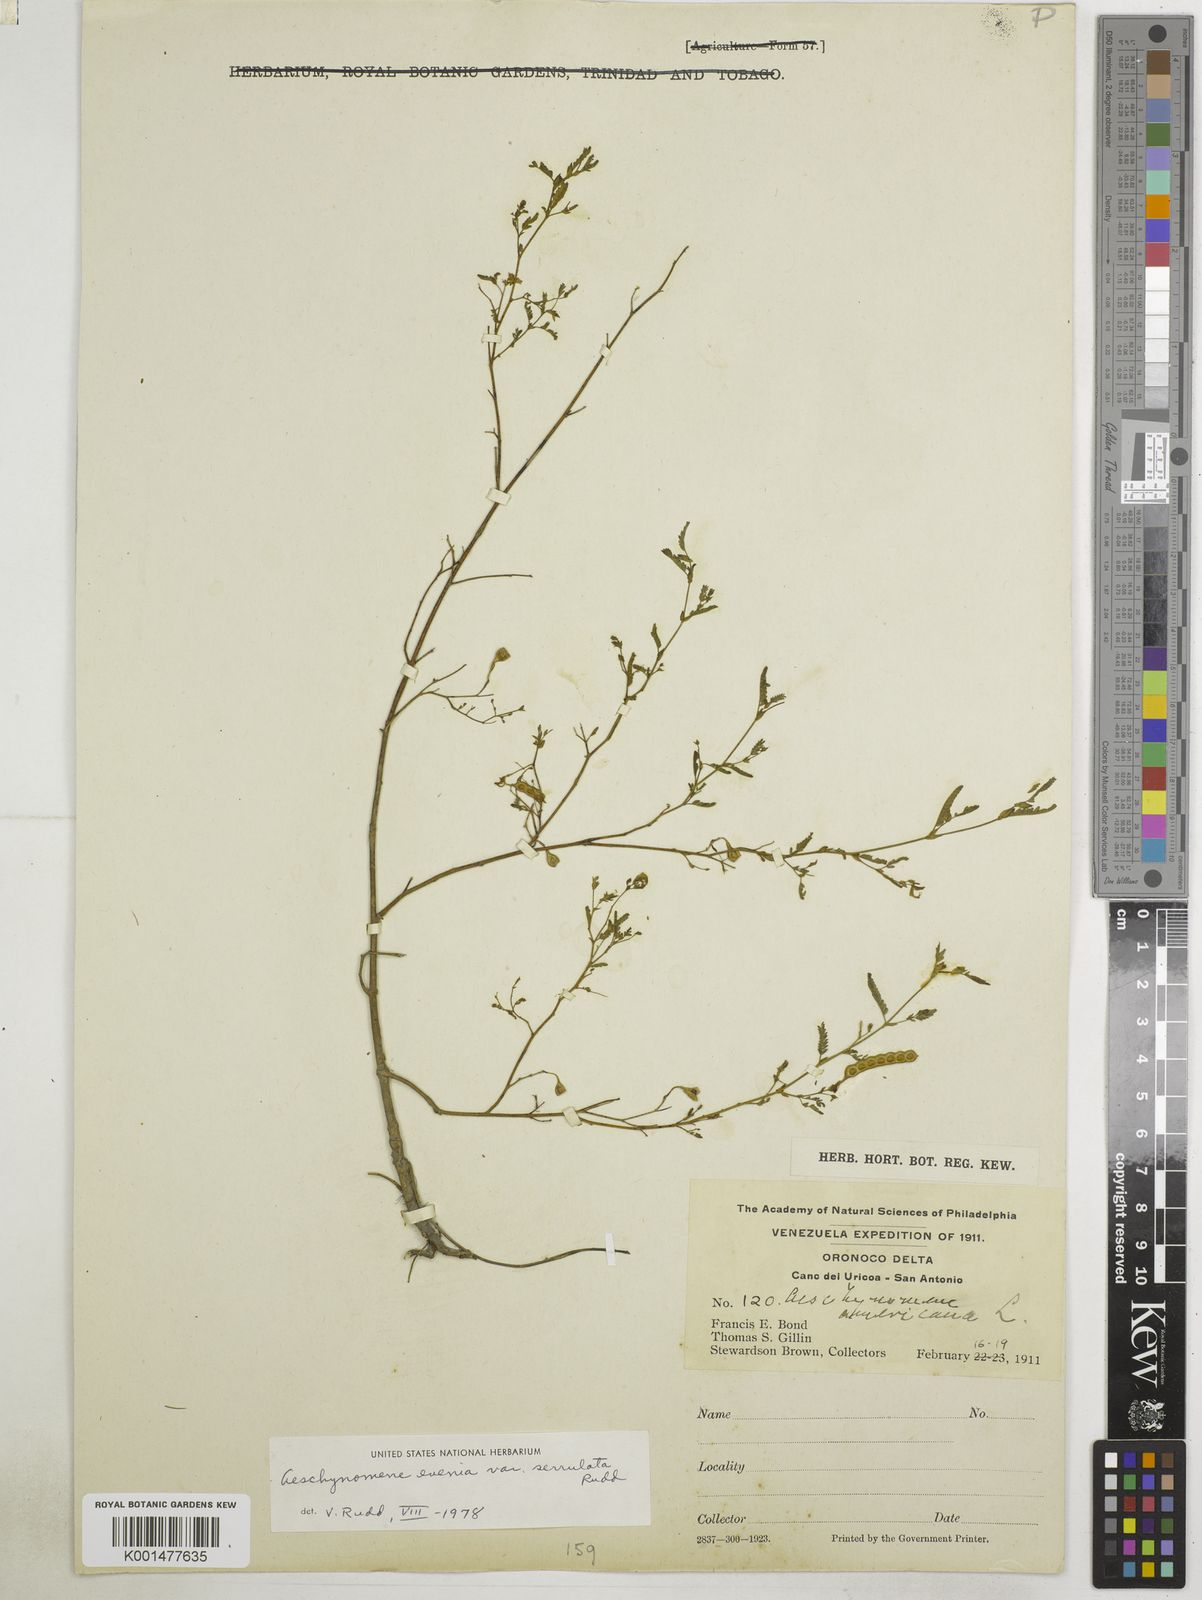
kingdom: Plantae
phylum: Tracheophyta
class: Magnoliopsida
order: Fabales
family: Fabaceae
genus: Aeschynomene
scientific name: Aeschynomene evenia
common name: Shrubby jointvetch
